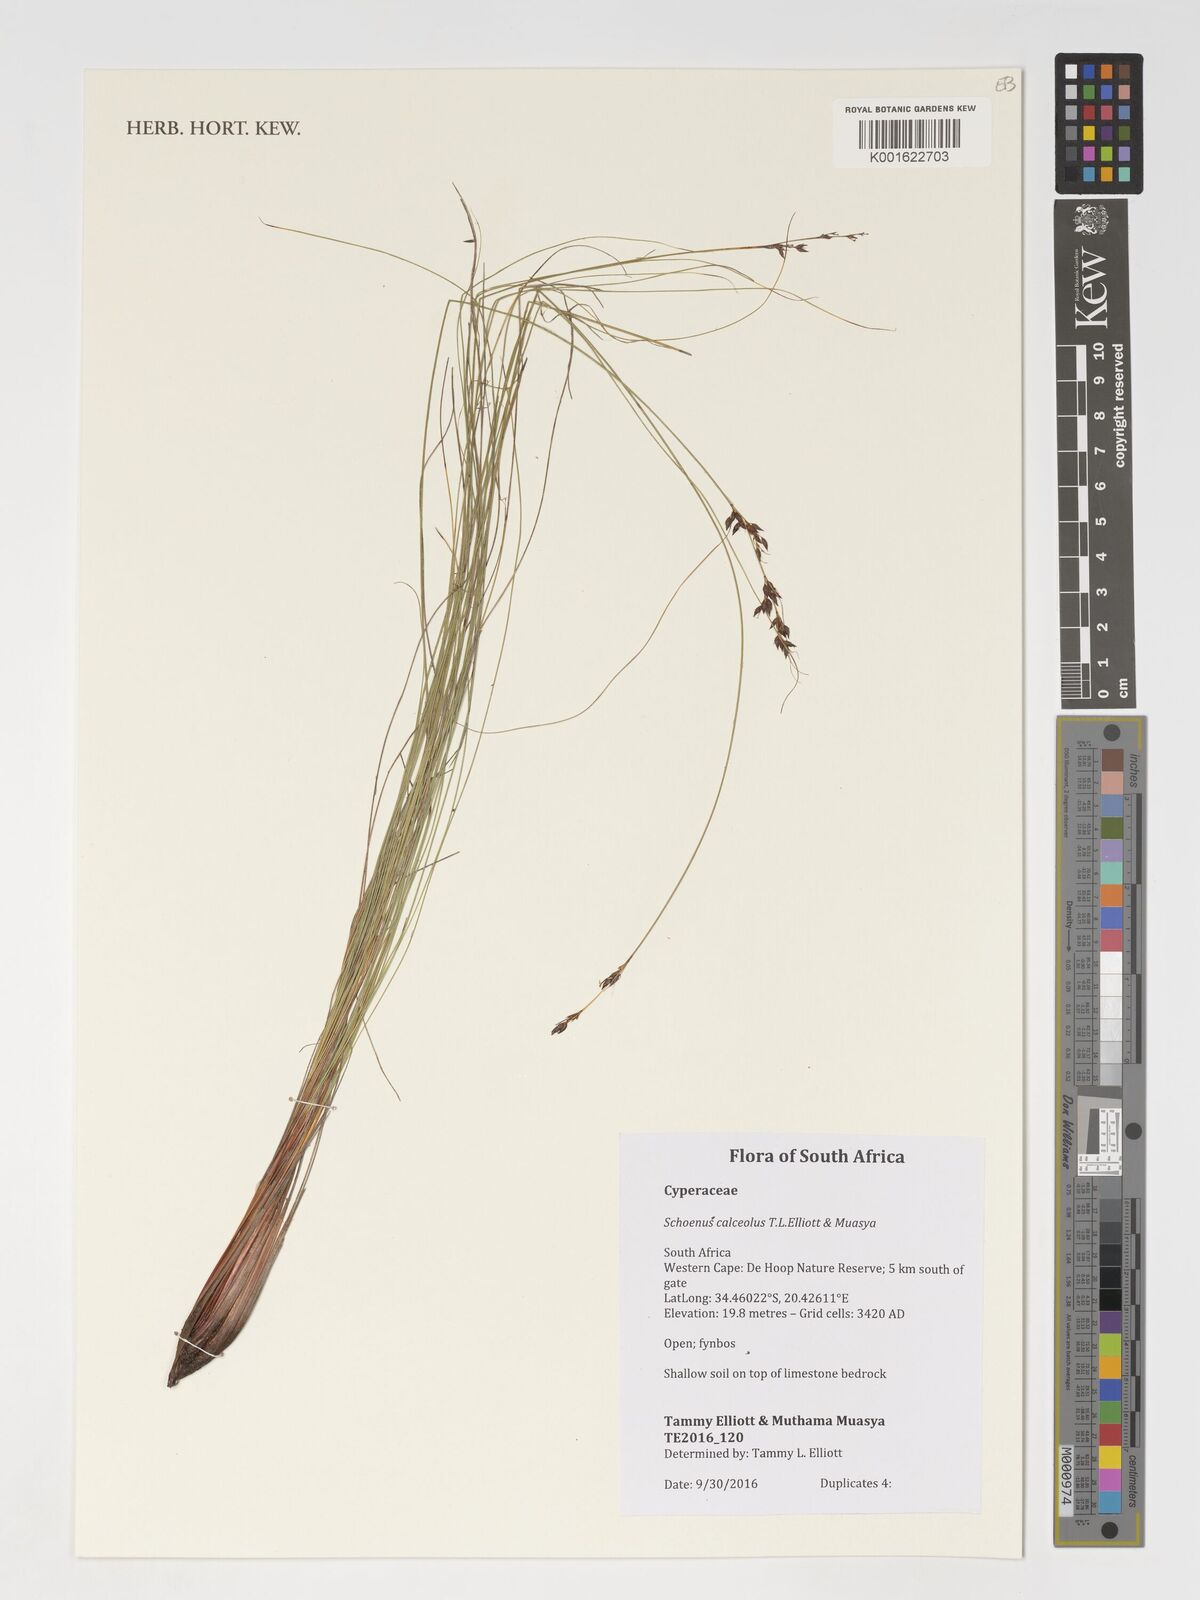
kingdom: Plantae
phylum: Tracheophyta
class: Liliopsida
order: Poales
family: Cyperaceae
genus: Schoenus
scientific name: Schoenus calceolus
